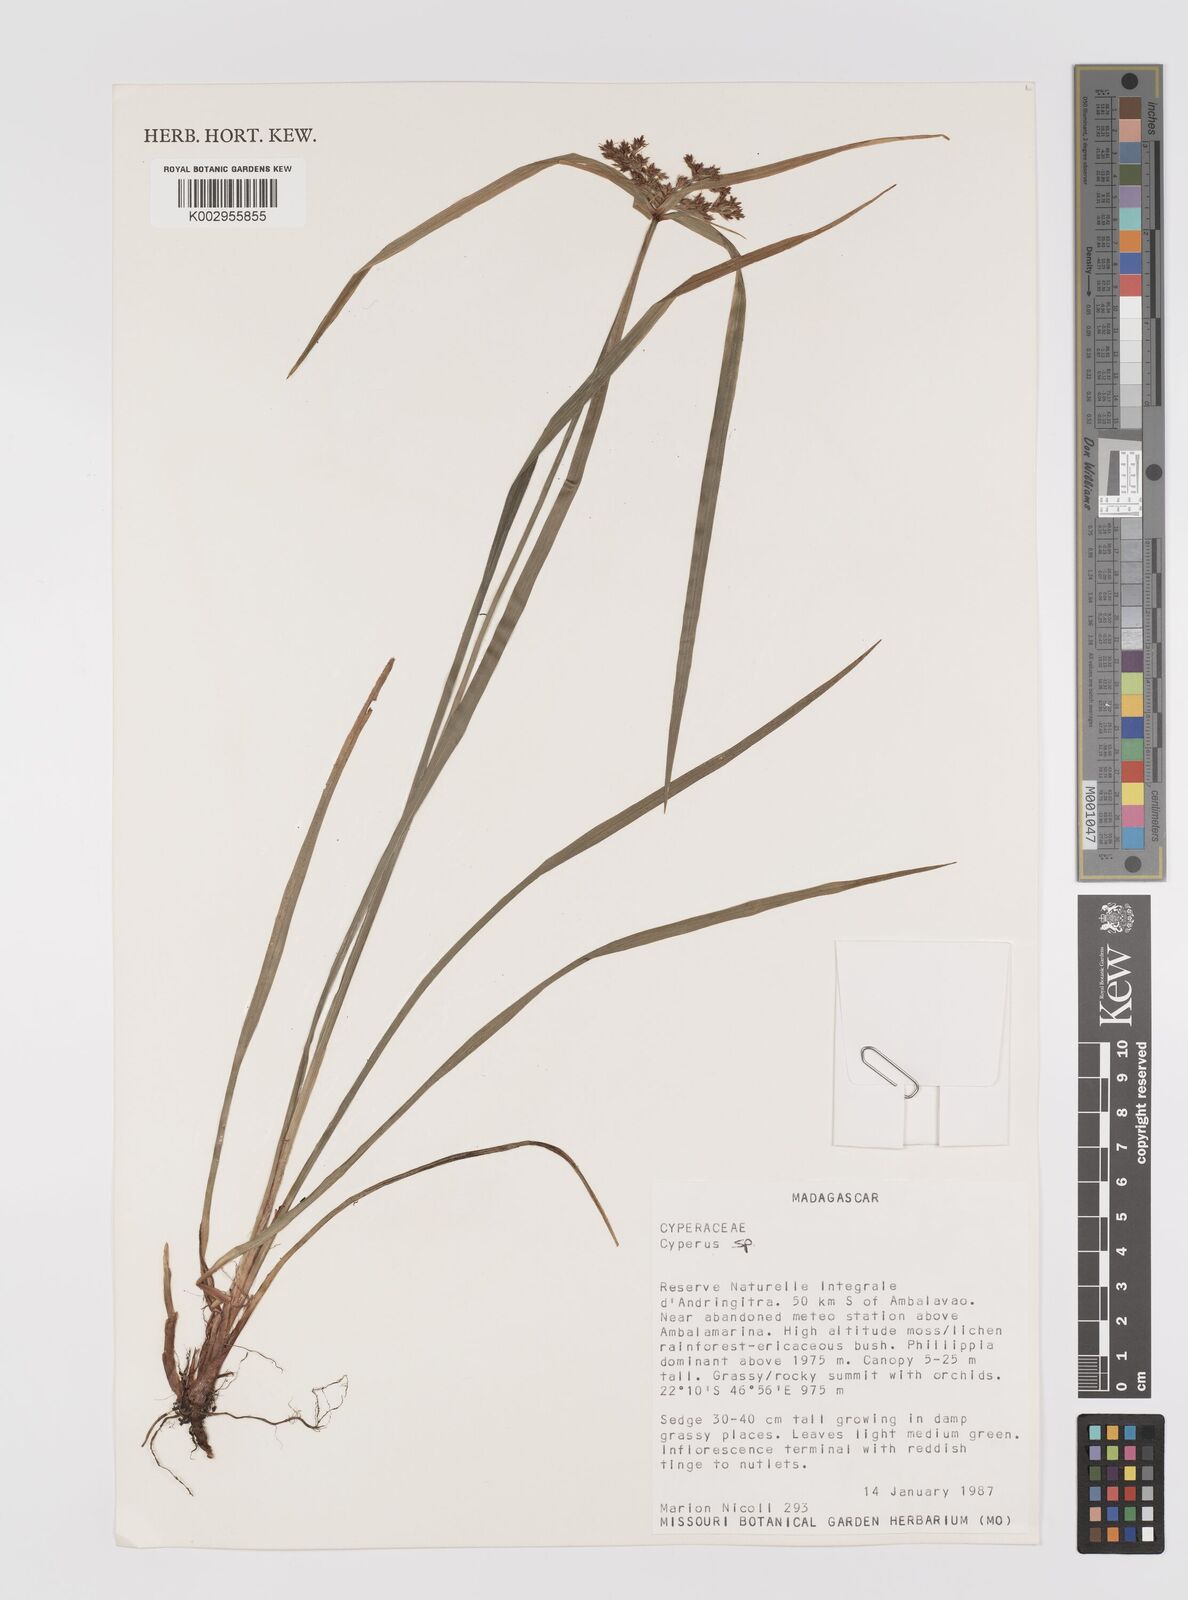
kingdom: Plantae
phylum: Tracheophyta
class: Liliopsida
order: Poales
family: Cyperaceae
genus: Cyperus
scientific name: Cyperus
